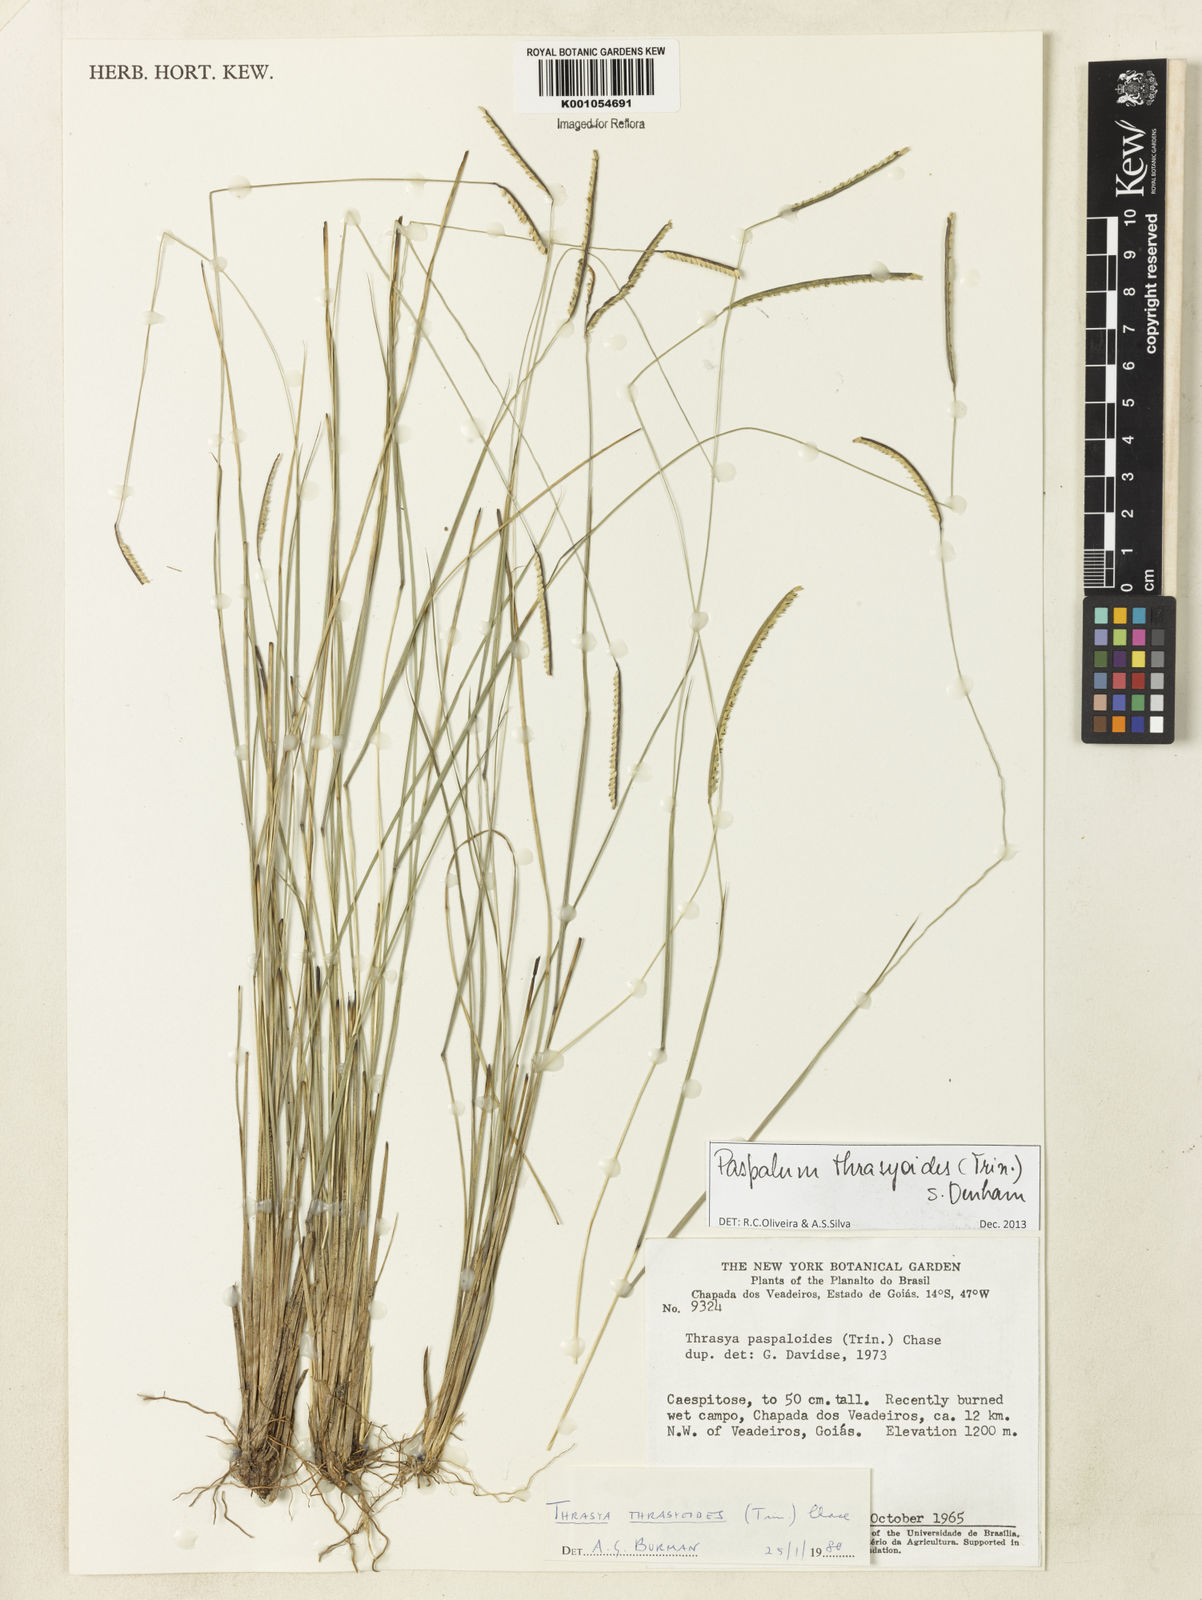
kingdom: Plantae
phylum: Tracheophyta
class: Liliopsida
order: Poales
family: Poaceae
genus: Paspalum
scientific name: Paspalum thrasyoides
